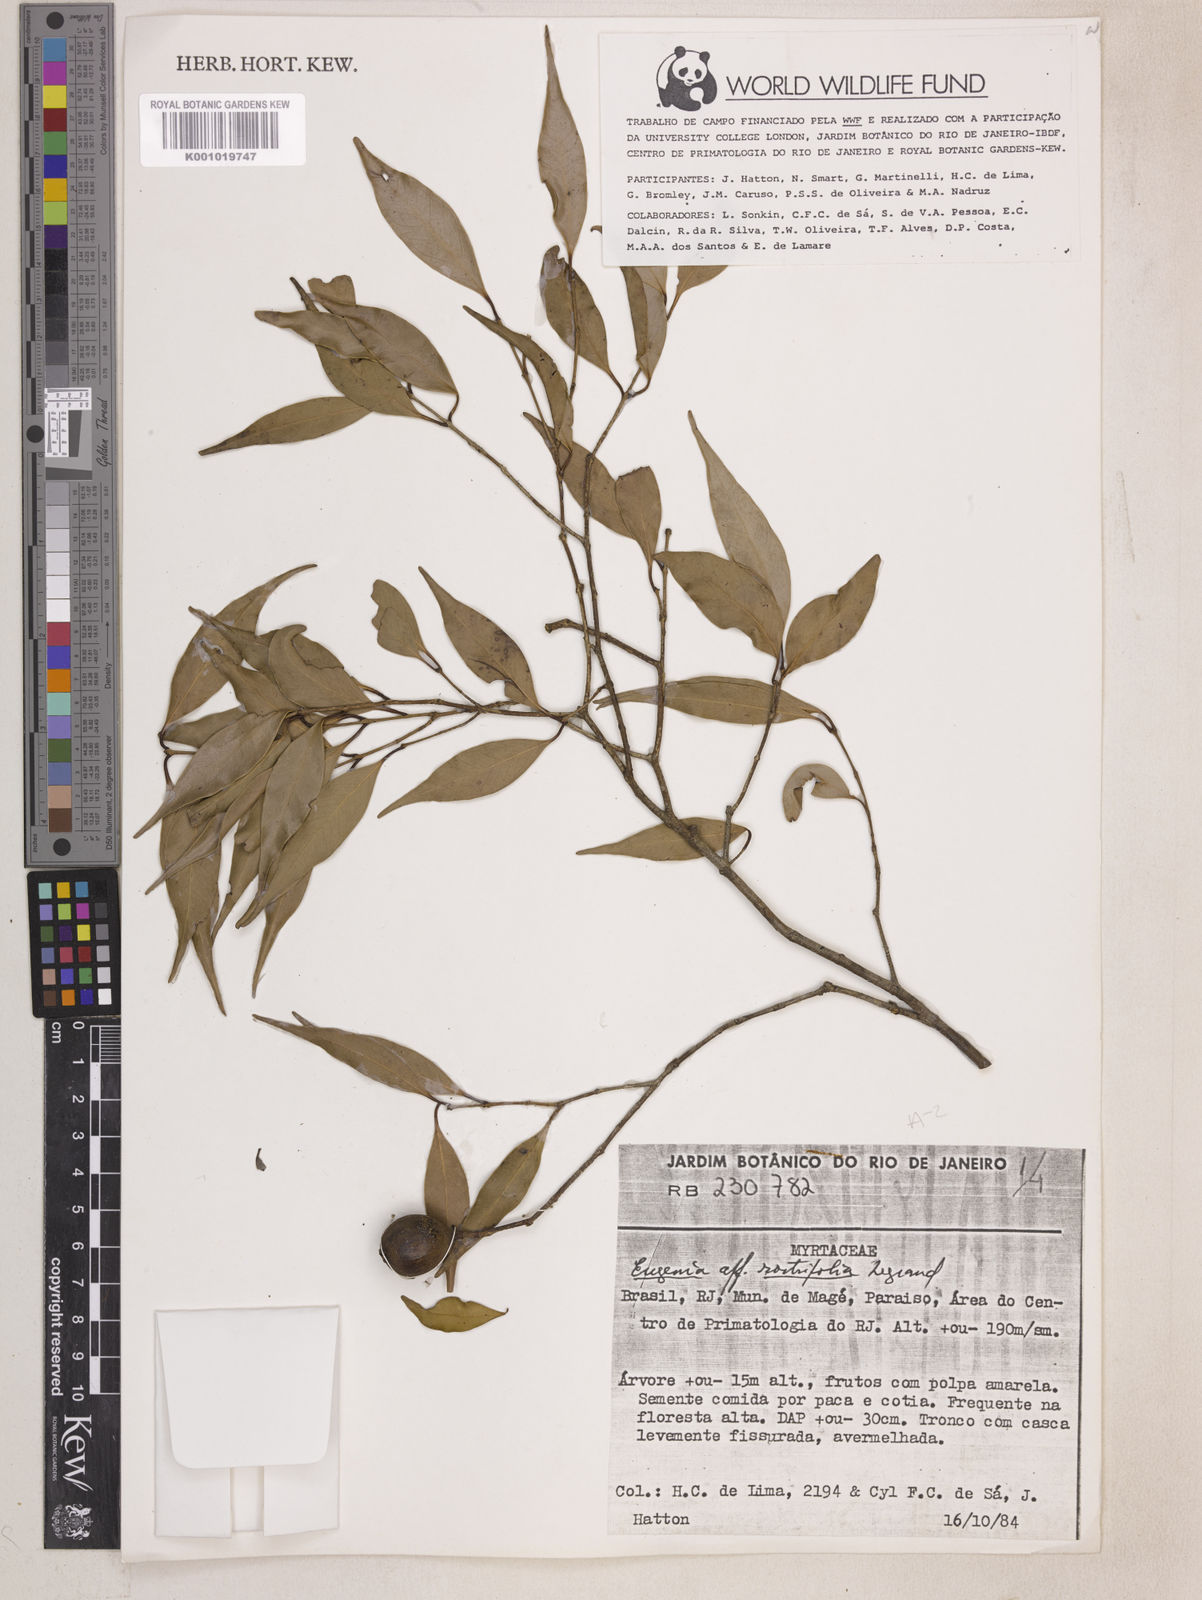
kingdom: Plantae
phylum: Tracheophyta
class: Magnoliopsida
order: Myrtales
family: Myrtaceae
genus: Eugenia
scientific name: Eugenia rostrifolia
